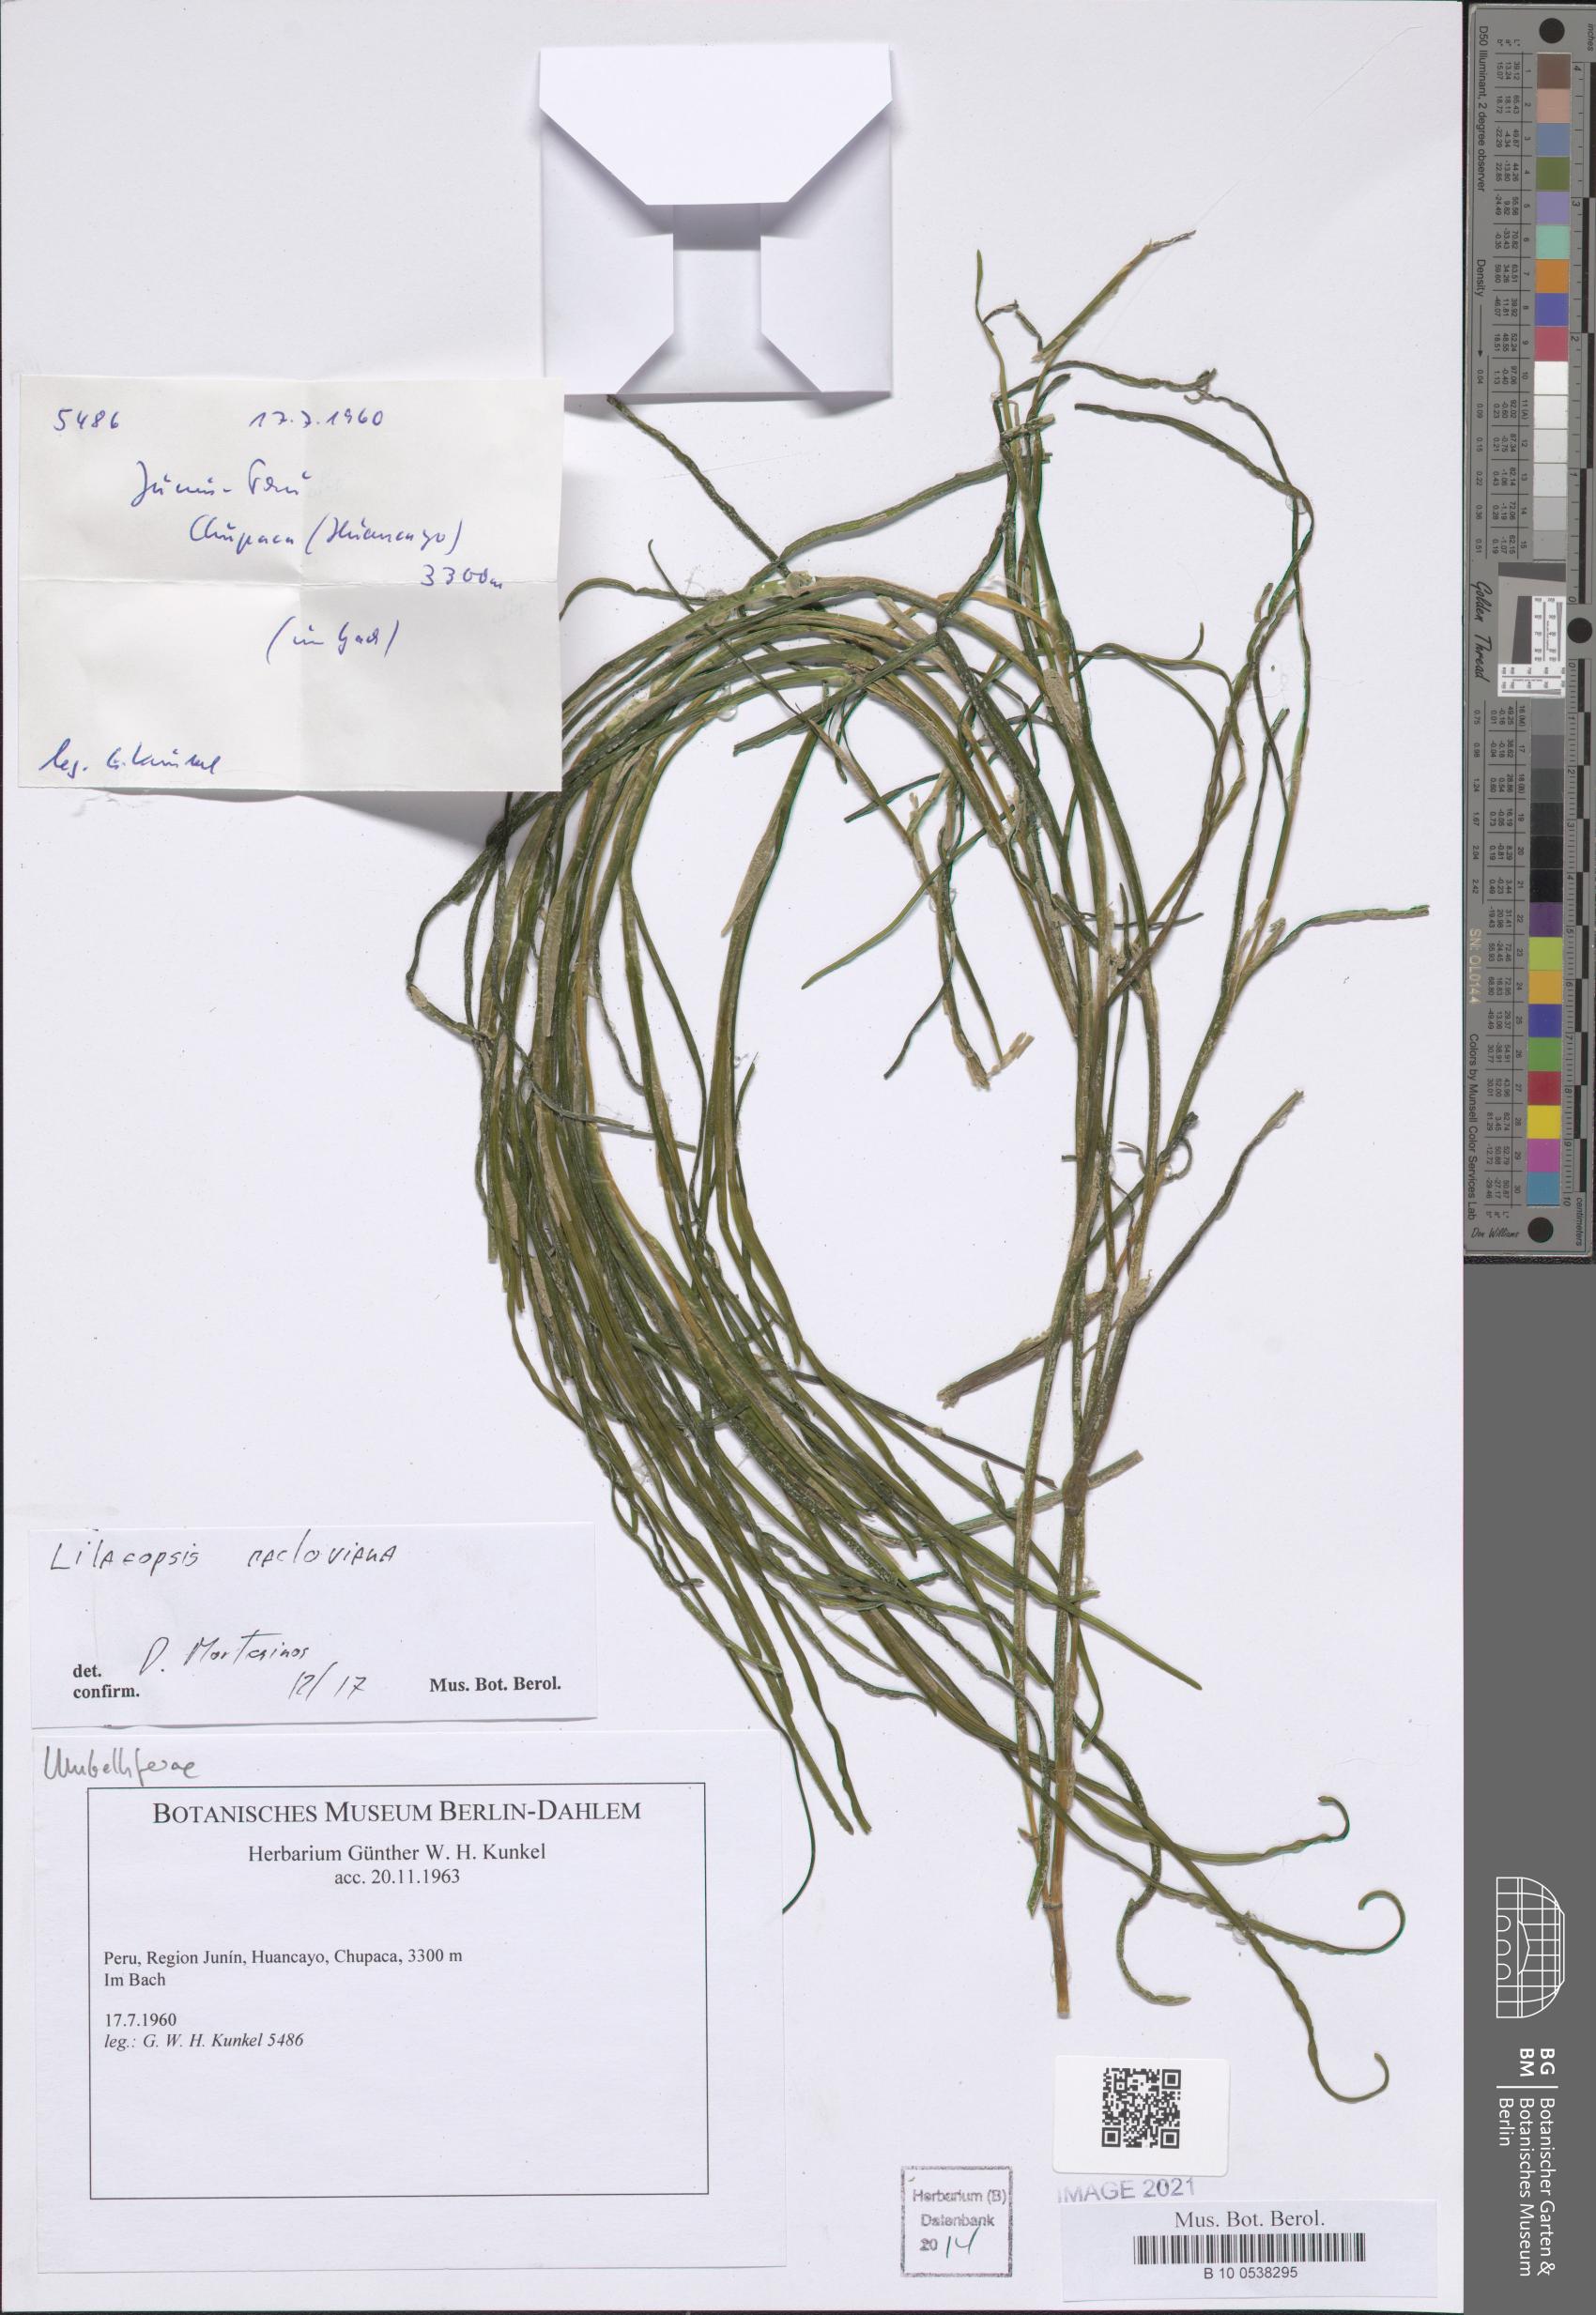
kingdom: Plantae
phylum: Tracheophyta
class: Magnoliopsida
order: Apiales
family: Apiaceae
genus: Lilaeopsis
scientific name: Lilaeopsis macloviana
